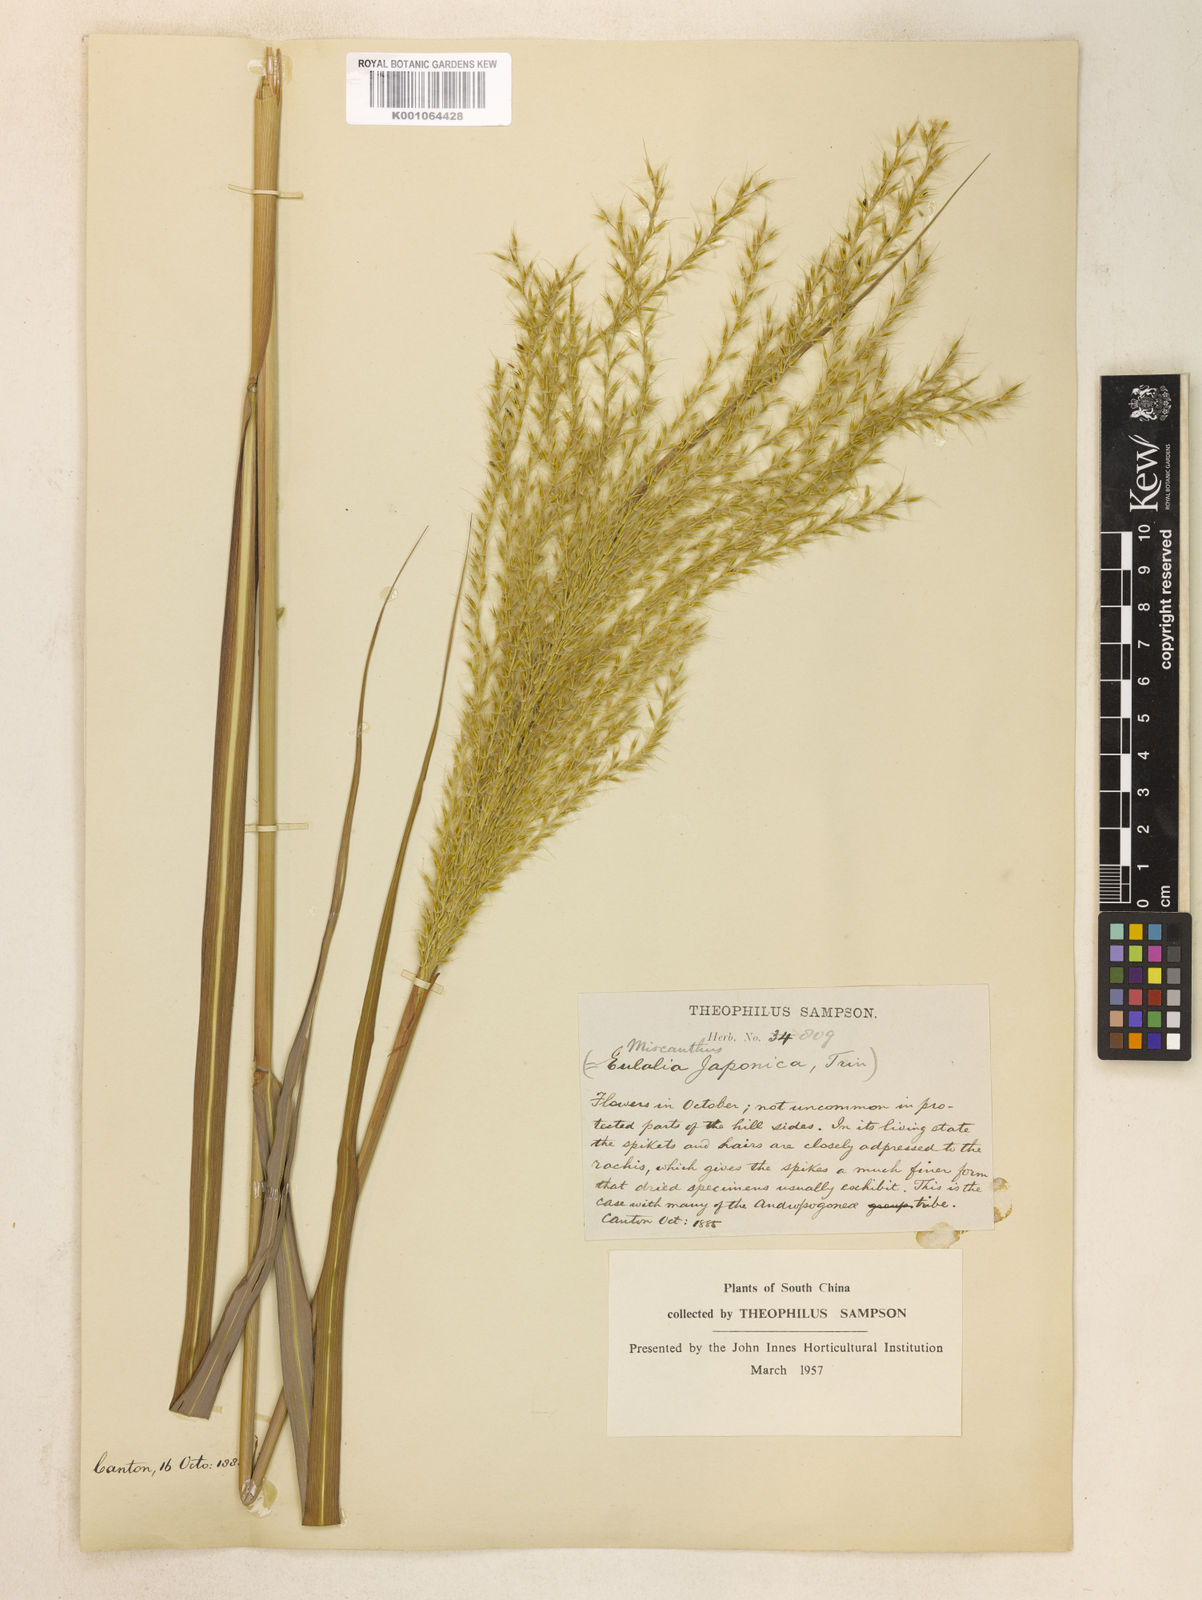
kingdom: Plantae
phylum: Tracheophyta
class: Liliopsida
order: Poales
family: Poaceae
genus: Miscanthus
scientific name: Miscanthus sinensis
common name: Chinese silvergrass
